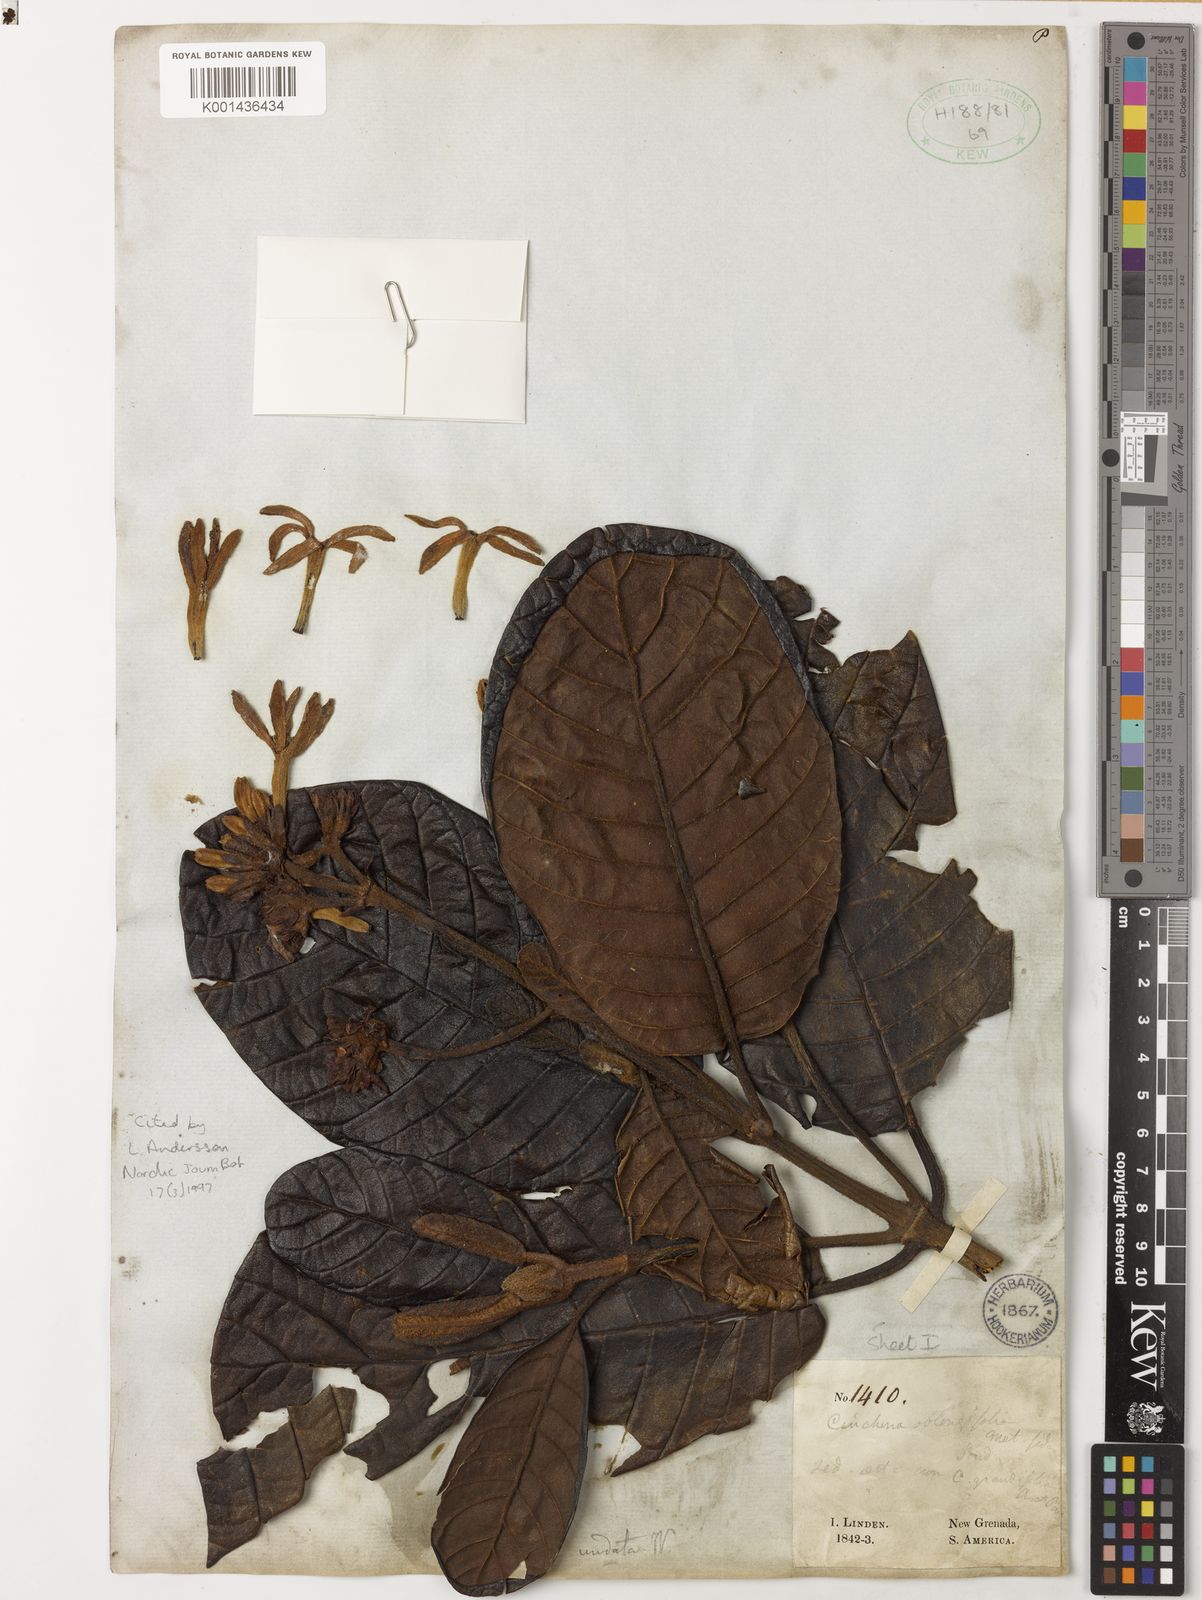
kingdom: Plantae
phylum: Tracheophyta
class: Magnoliopsida
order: Gentianales
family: Rubiaceae
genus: Ladenbergia
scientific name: Ladenbergia undata
